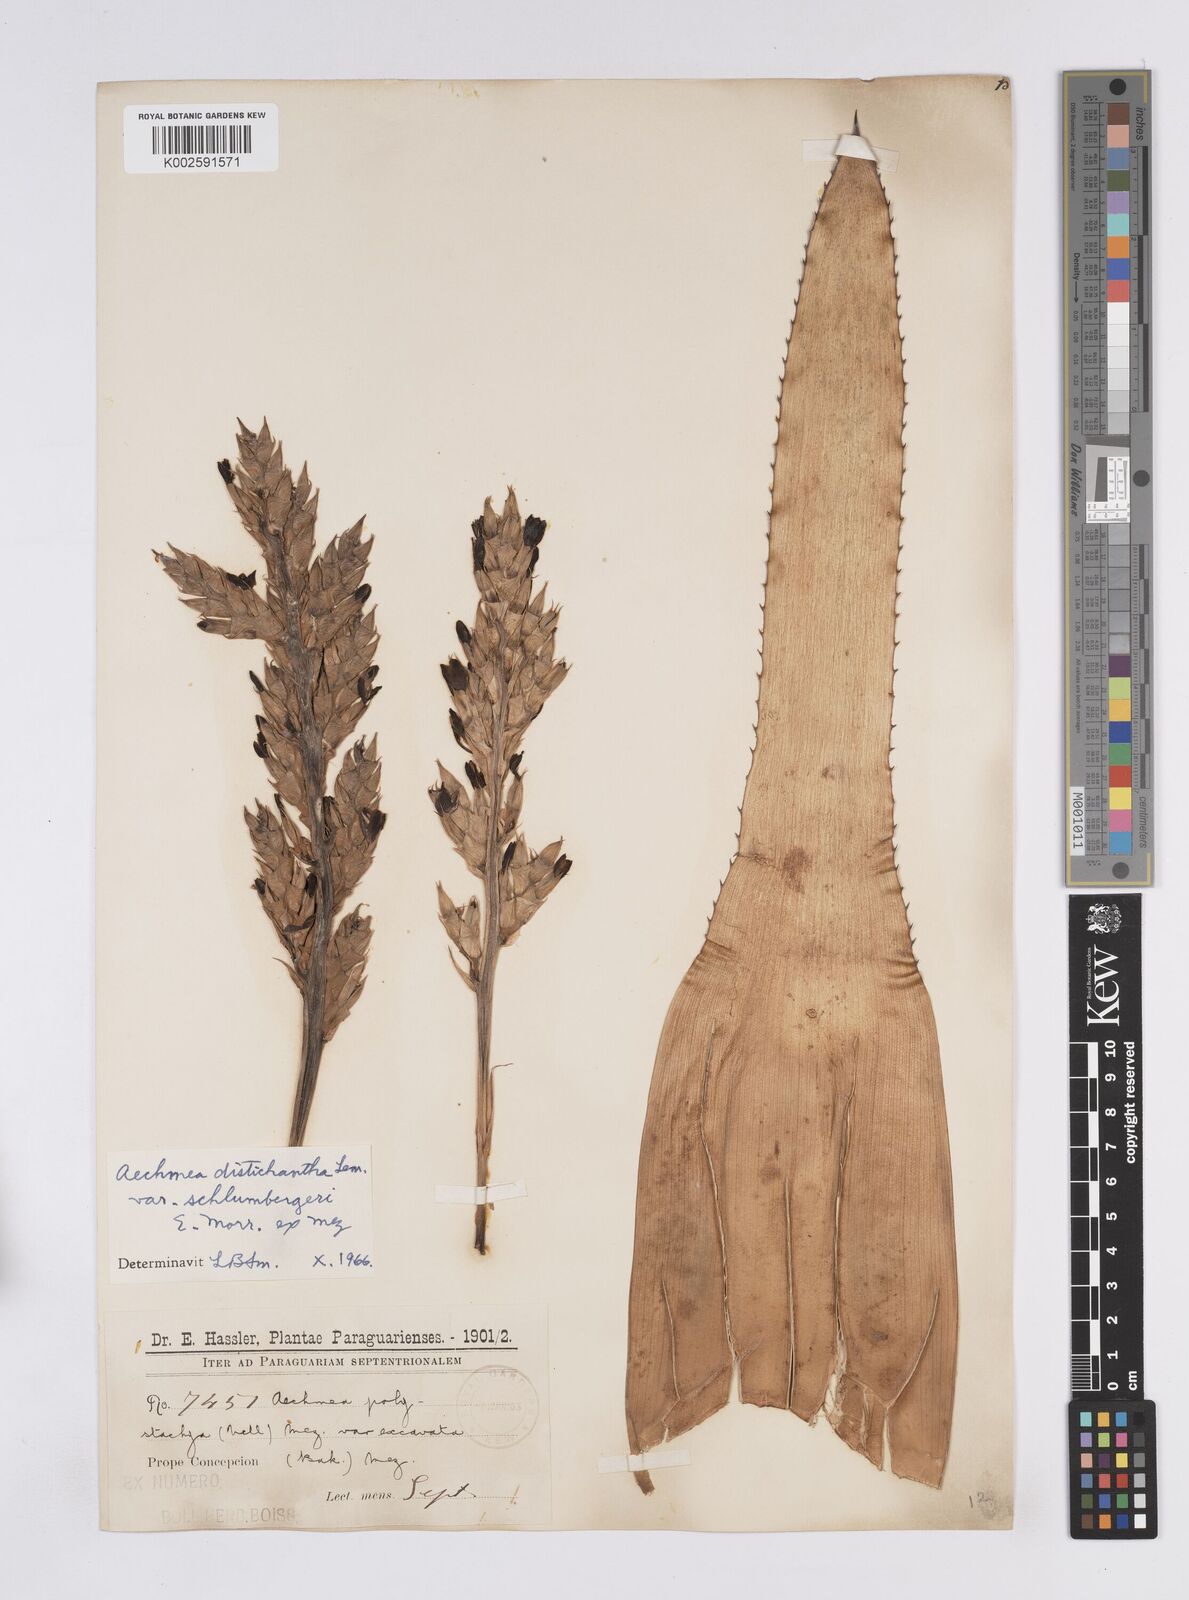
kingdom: Plantae
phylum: Tracheophyta
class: Liliopsida
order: Poales
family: Bromeliaceae
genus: Aechmea
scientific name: Aechmea distichantha
